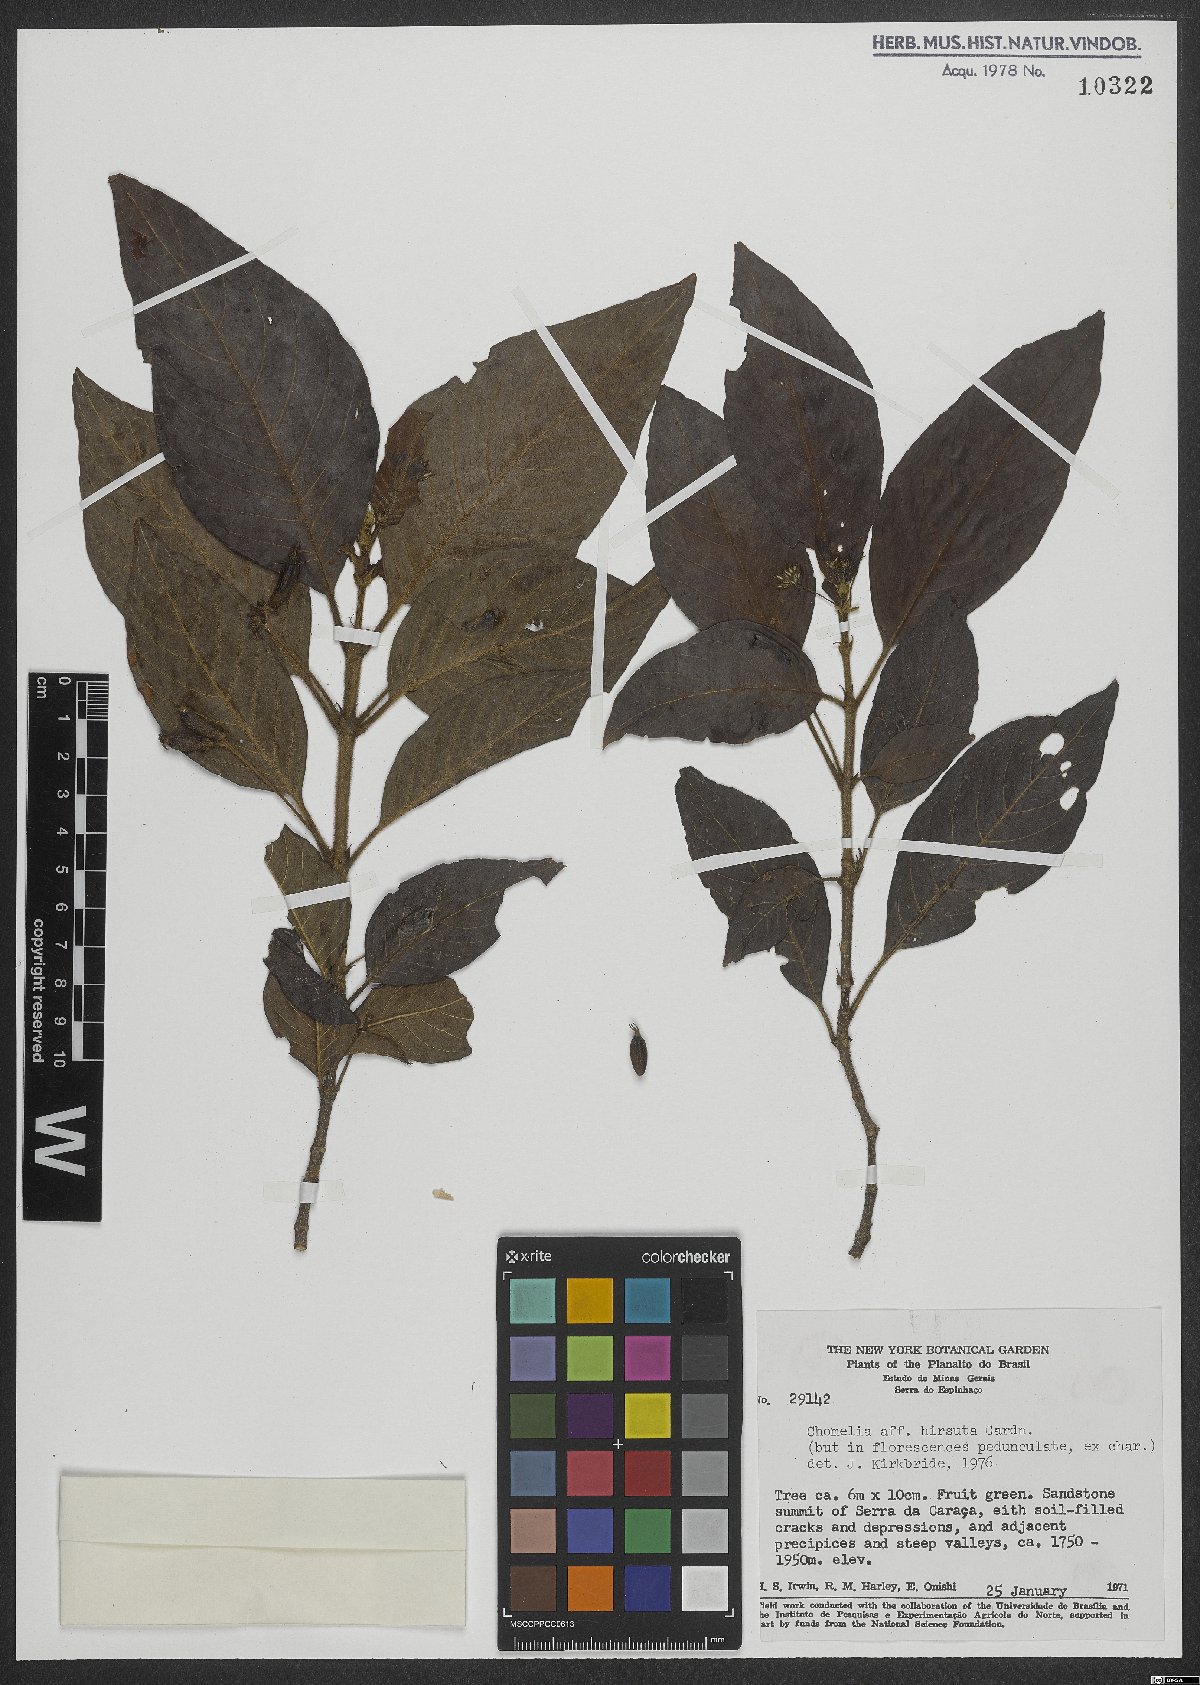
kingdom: Plantae
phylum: Tracheophyta
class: Magnoliopsida
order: Gentianales
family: Rubiaceae
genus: Chomelia
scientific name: Chomelia hirsuta
